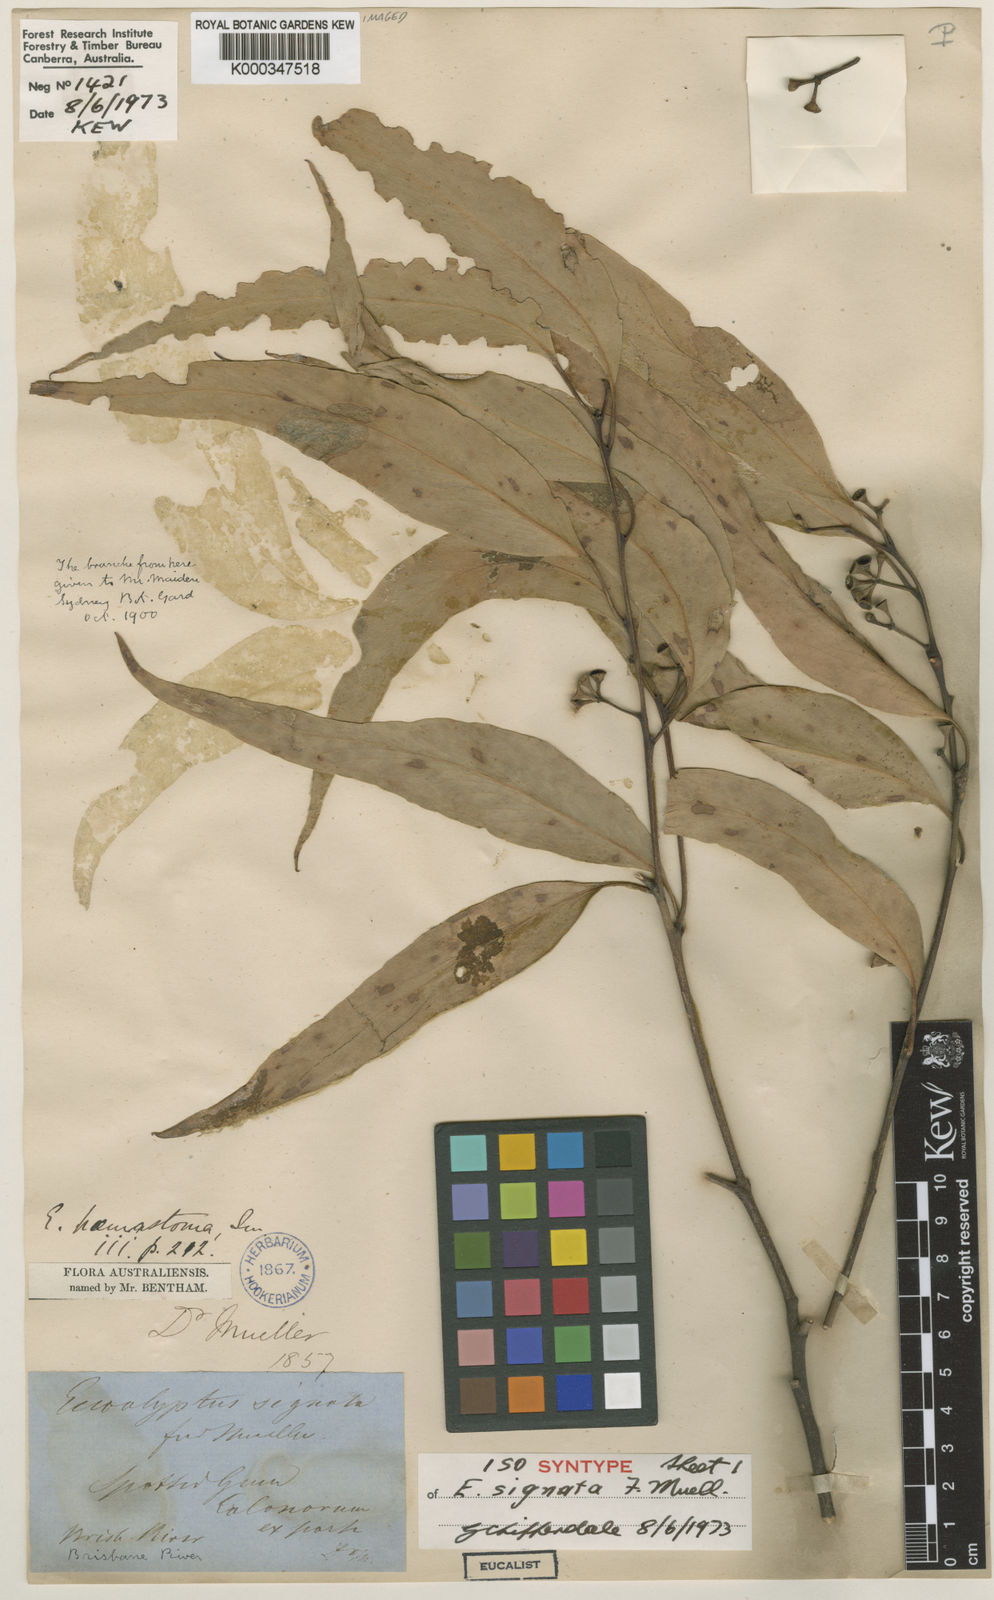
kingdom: Plantae
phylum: Tracheophyta
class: Magnoliopsida
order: Myrtales
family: Myrtaceae
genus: Eucalyptus
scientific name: Eucalyptus signata
